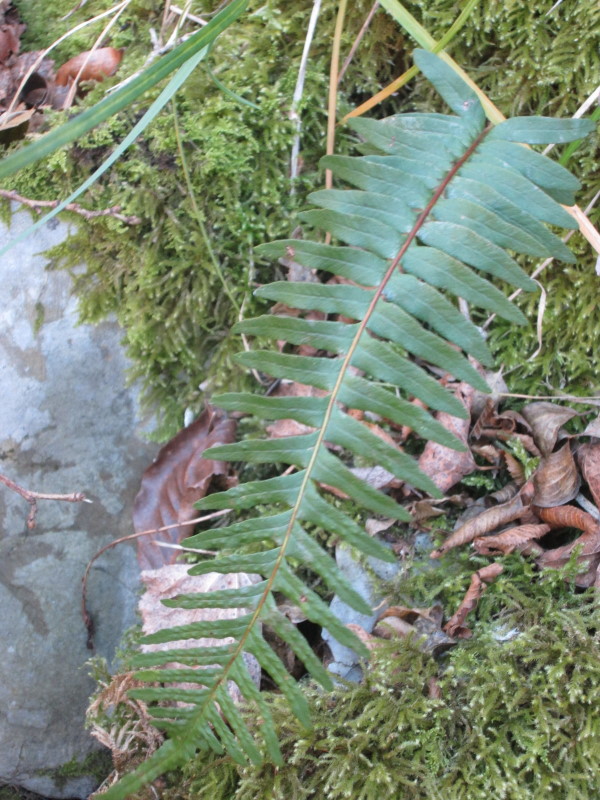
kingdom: Plantae
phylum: Tracheophyta
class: Polypodiopsida
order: Polypodiales
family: Polypodiaceae
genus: Polypodium
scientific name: Polypodium vulgare
